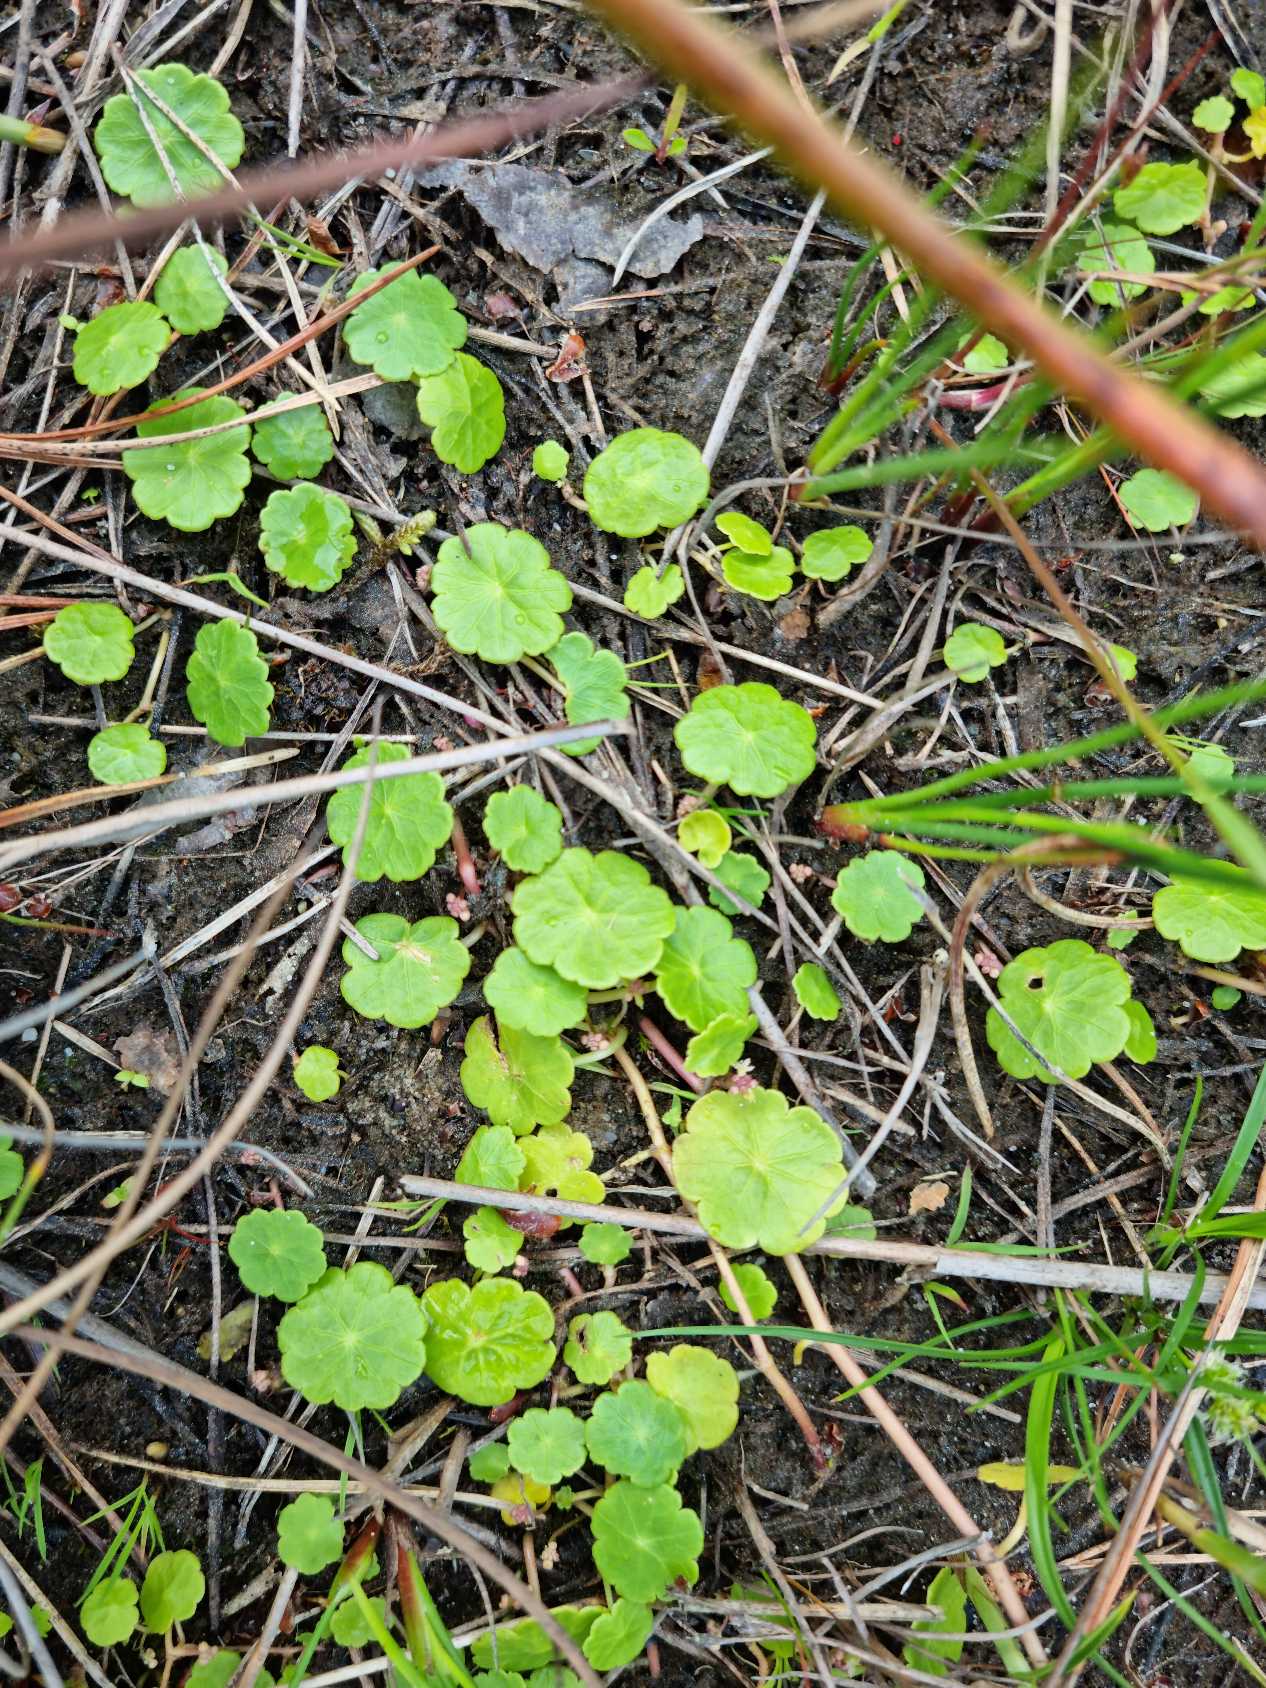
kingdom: Plantae
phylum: Tracheophyta
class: Magnoliopsida
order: Apiales
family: Araliaceae
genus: Hydrocotyle
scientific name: Hydrocotyle vulgaris
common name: Vandnavle
